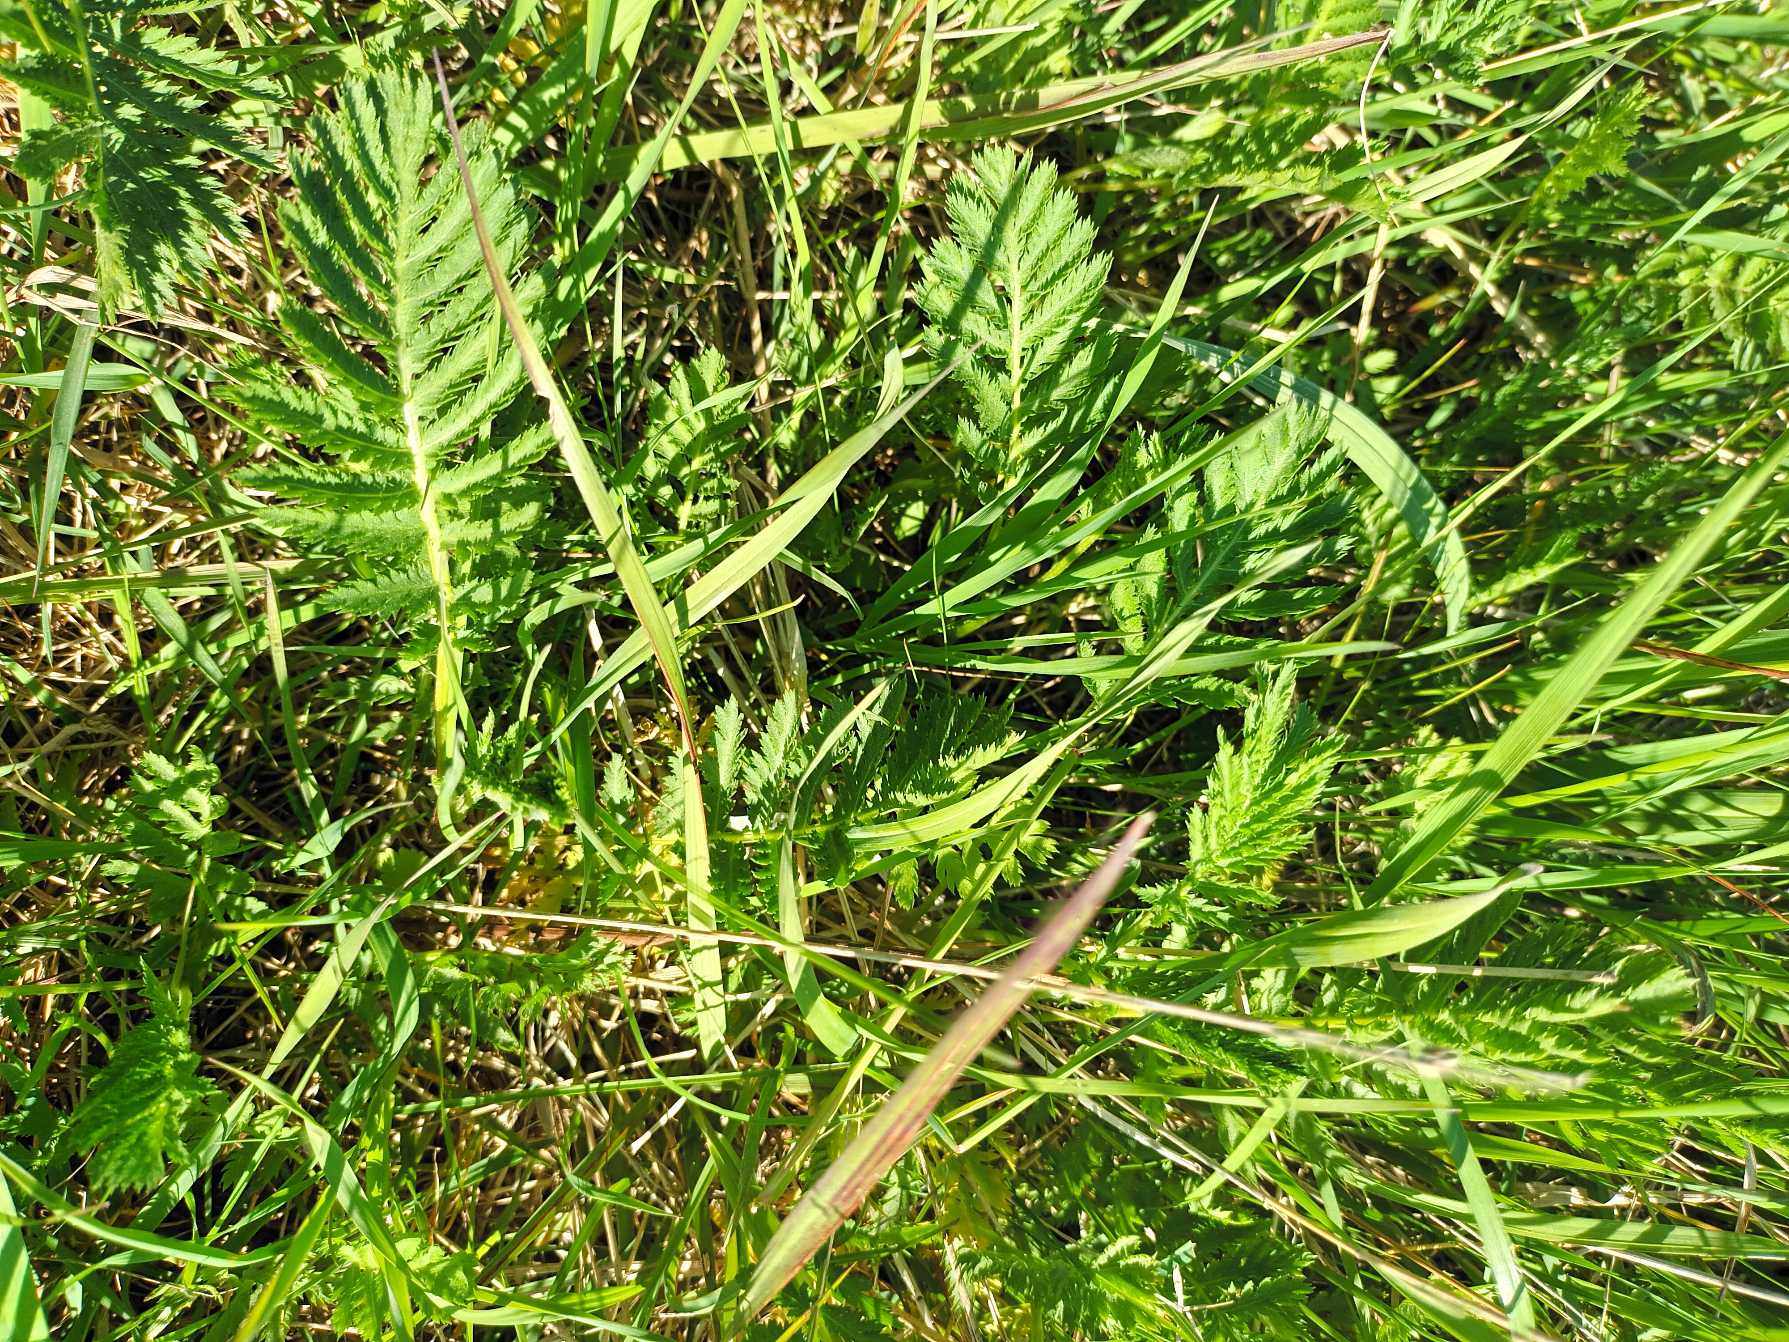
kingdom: Plantae
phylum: Tracheophyta
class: Magnoliopsida
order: Asterales
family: Asteraceae
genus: Tanacetum
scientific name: Tanacetum vulgare
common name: Rejnfan
